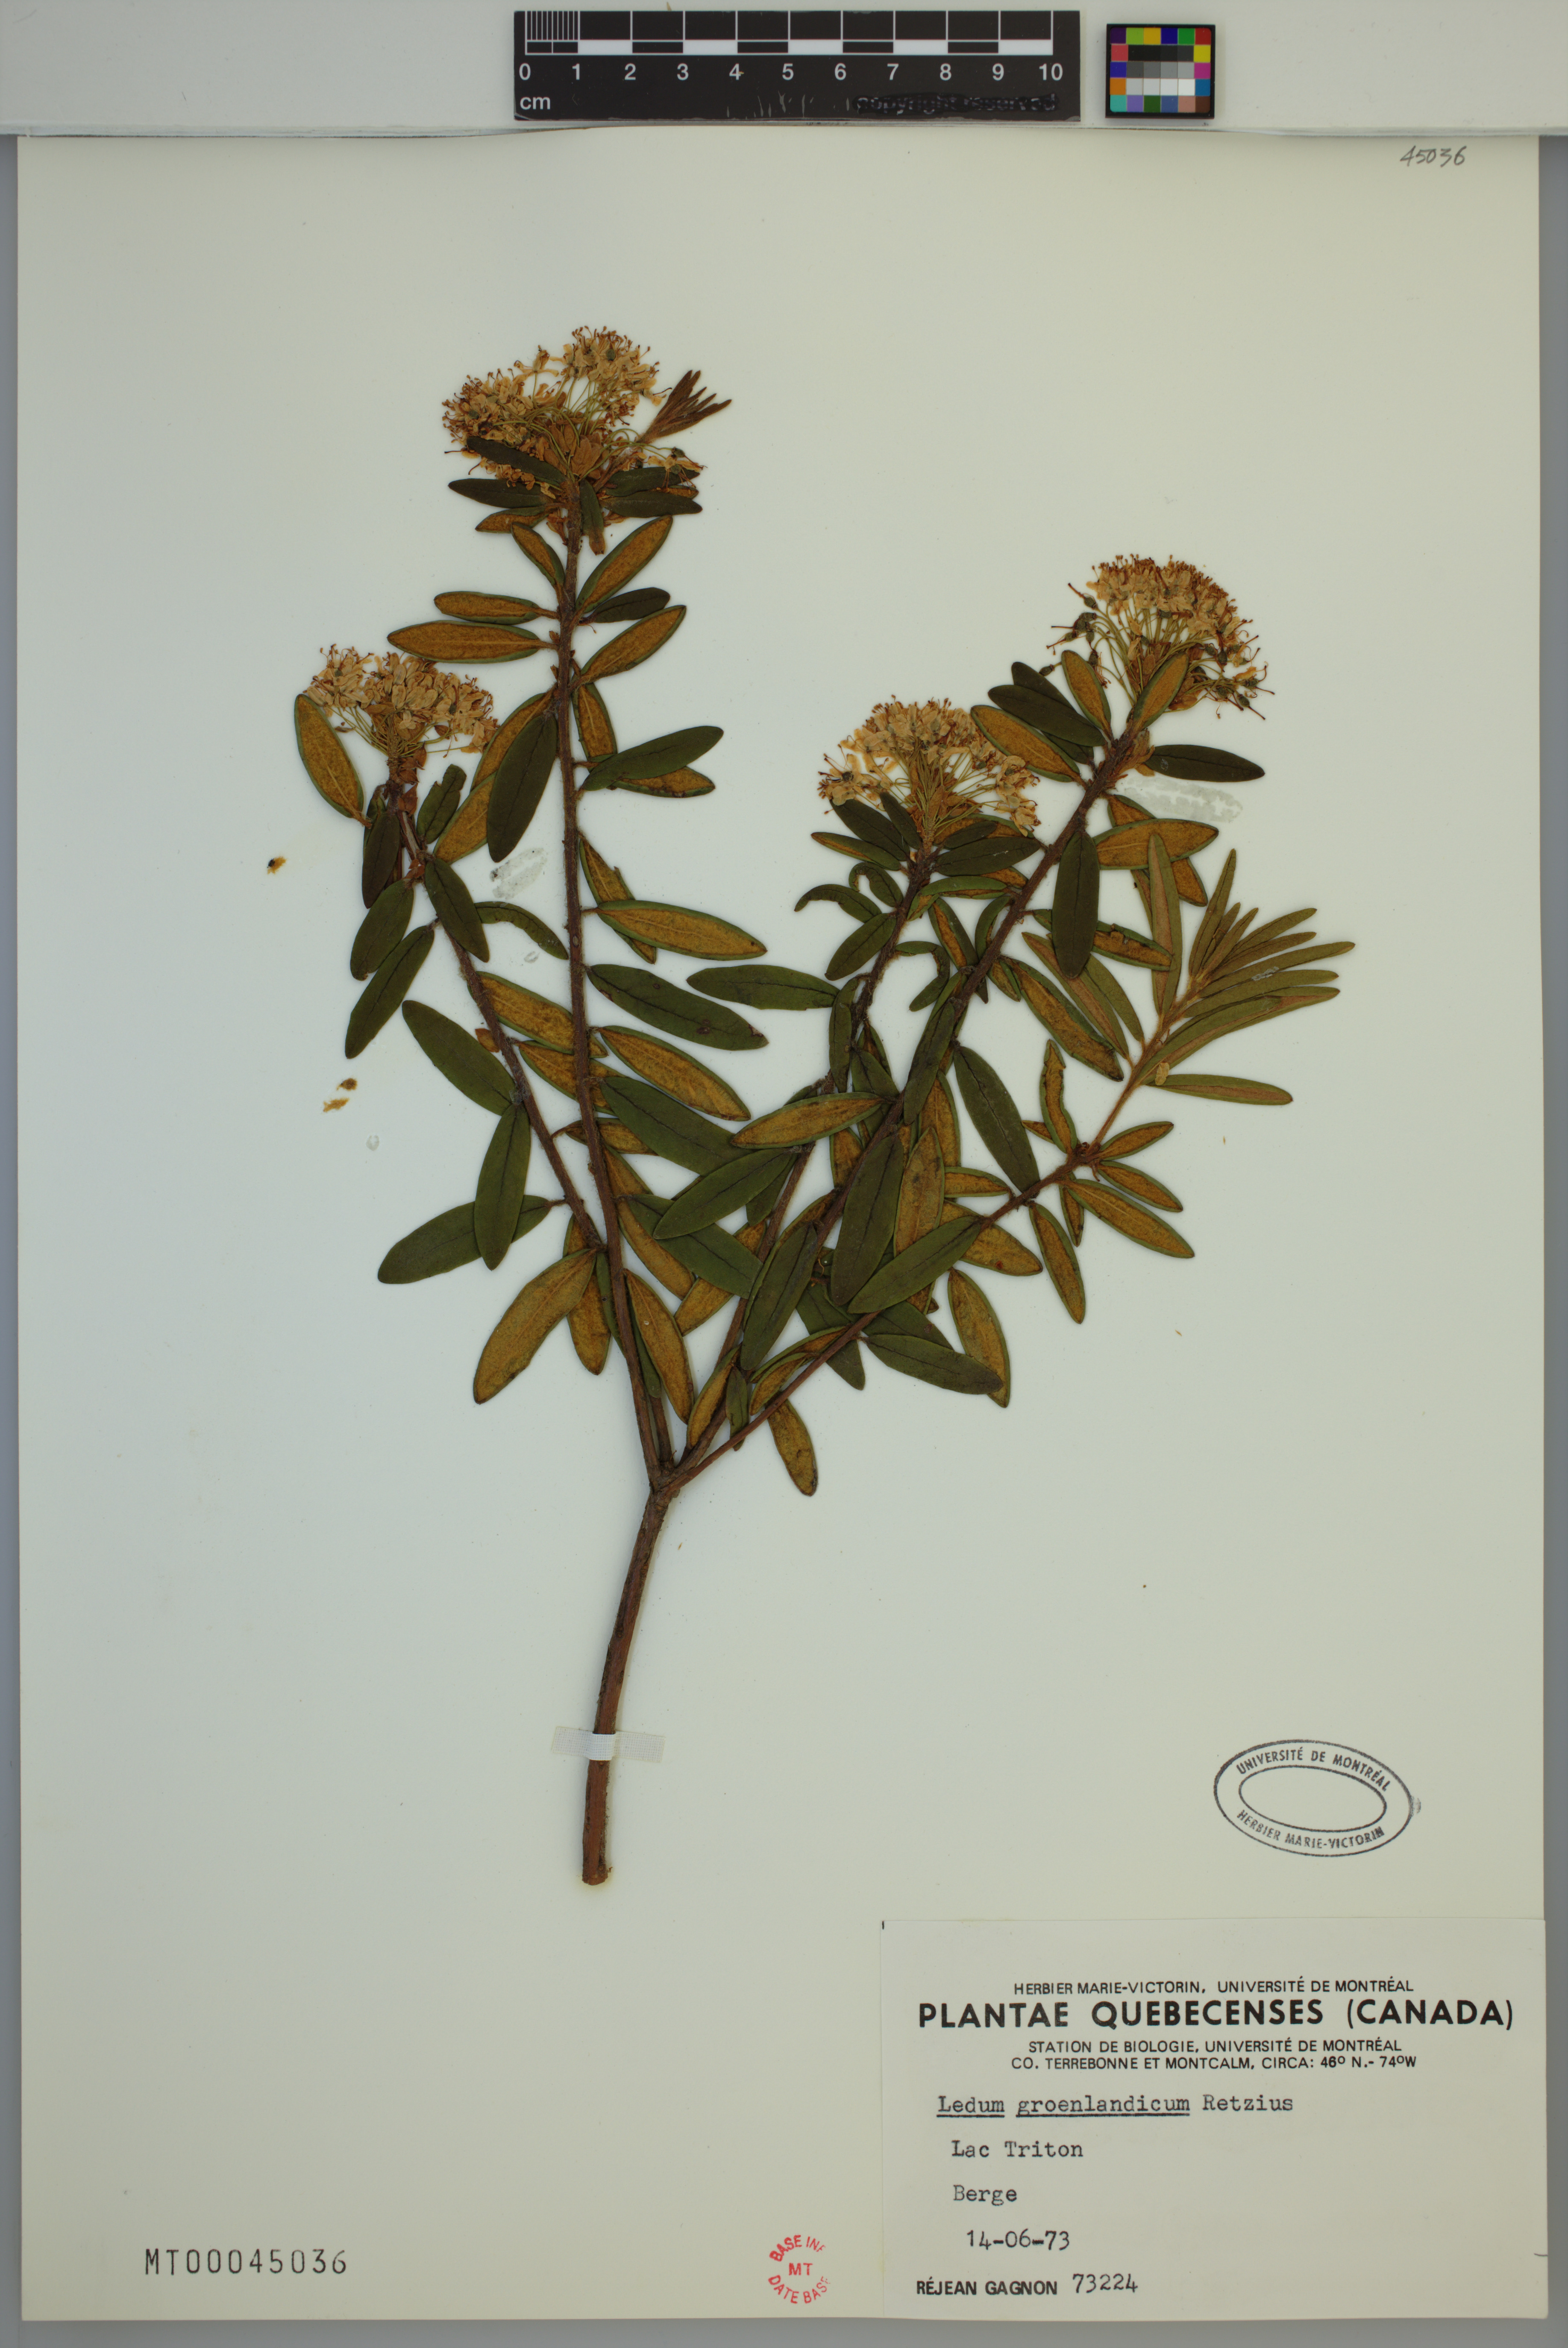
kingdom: Plantae
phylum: Tracheophyta
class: Magnoliopsida
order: Ericales
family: Ericaceae
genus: Rhododendron
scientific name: Rhododendron groenlandicum
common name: Bog labrador tea
